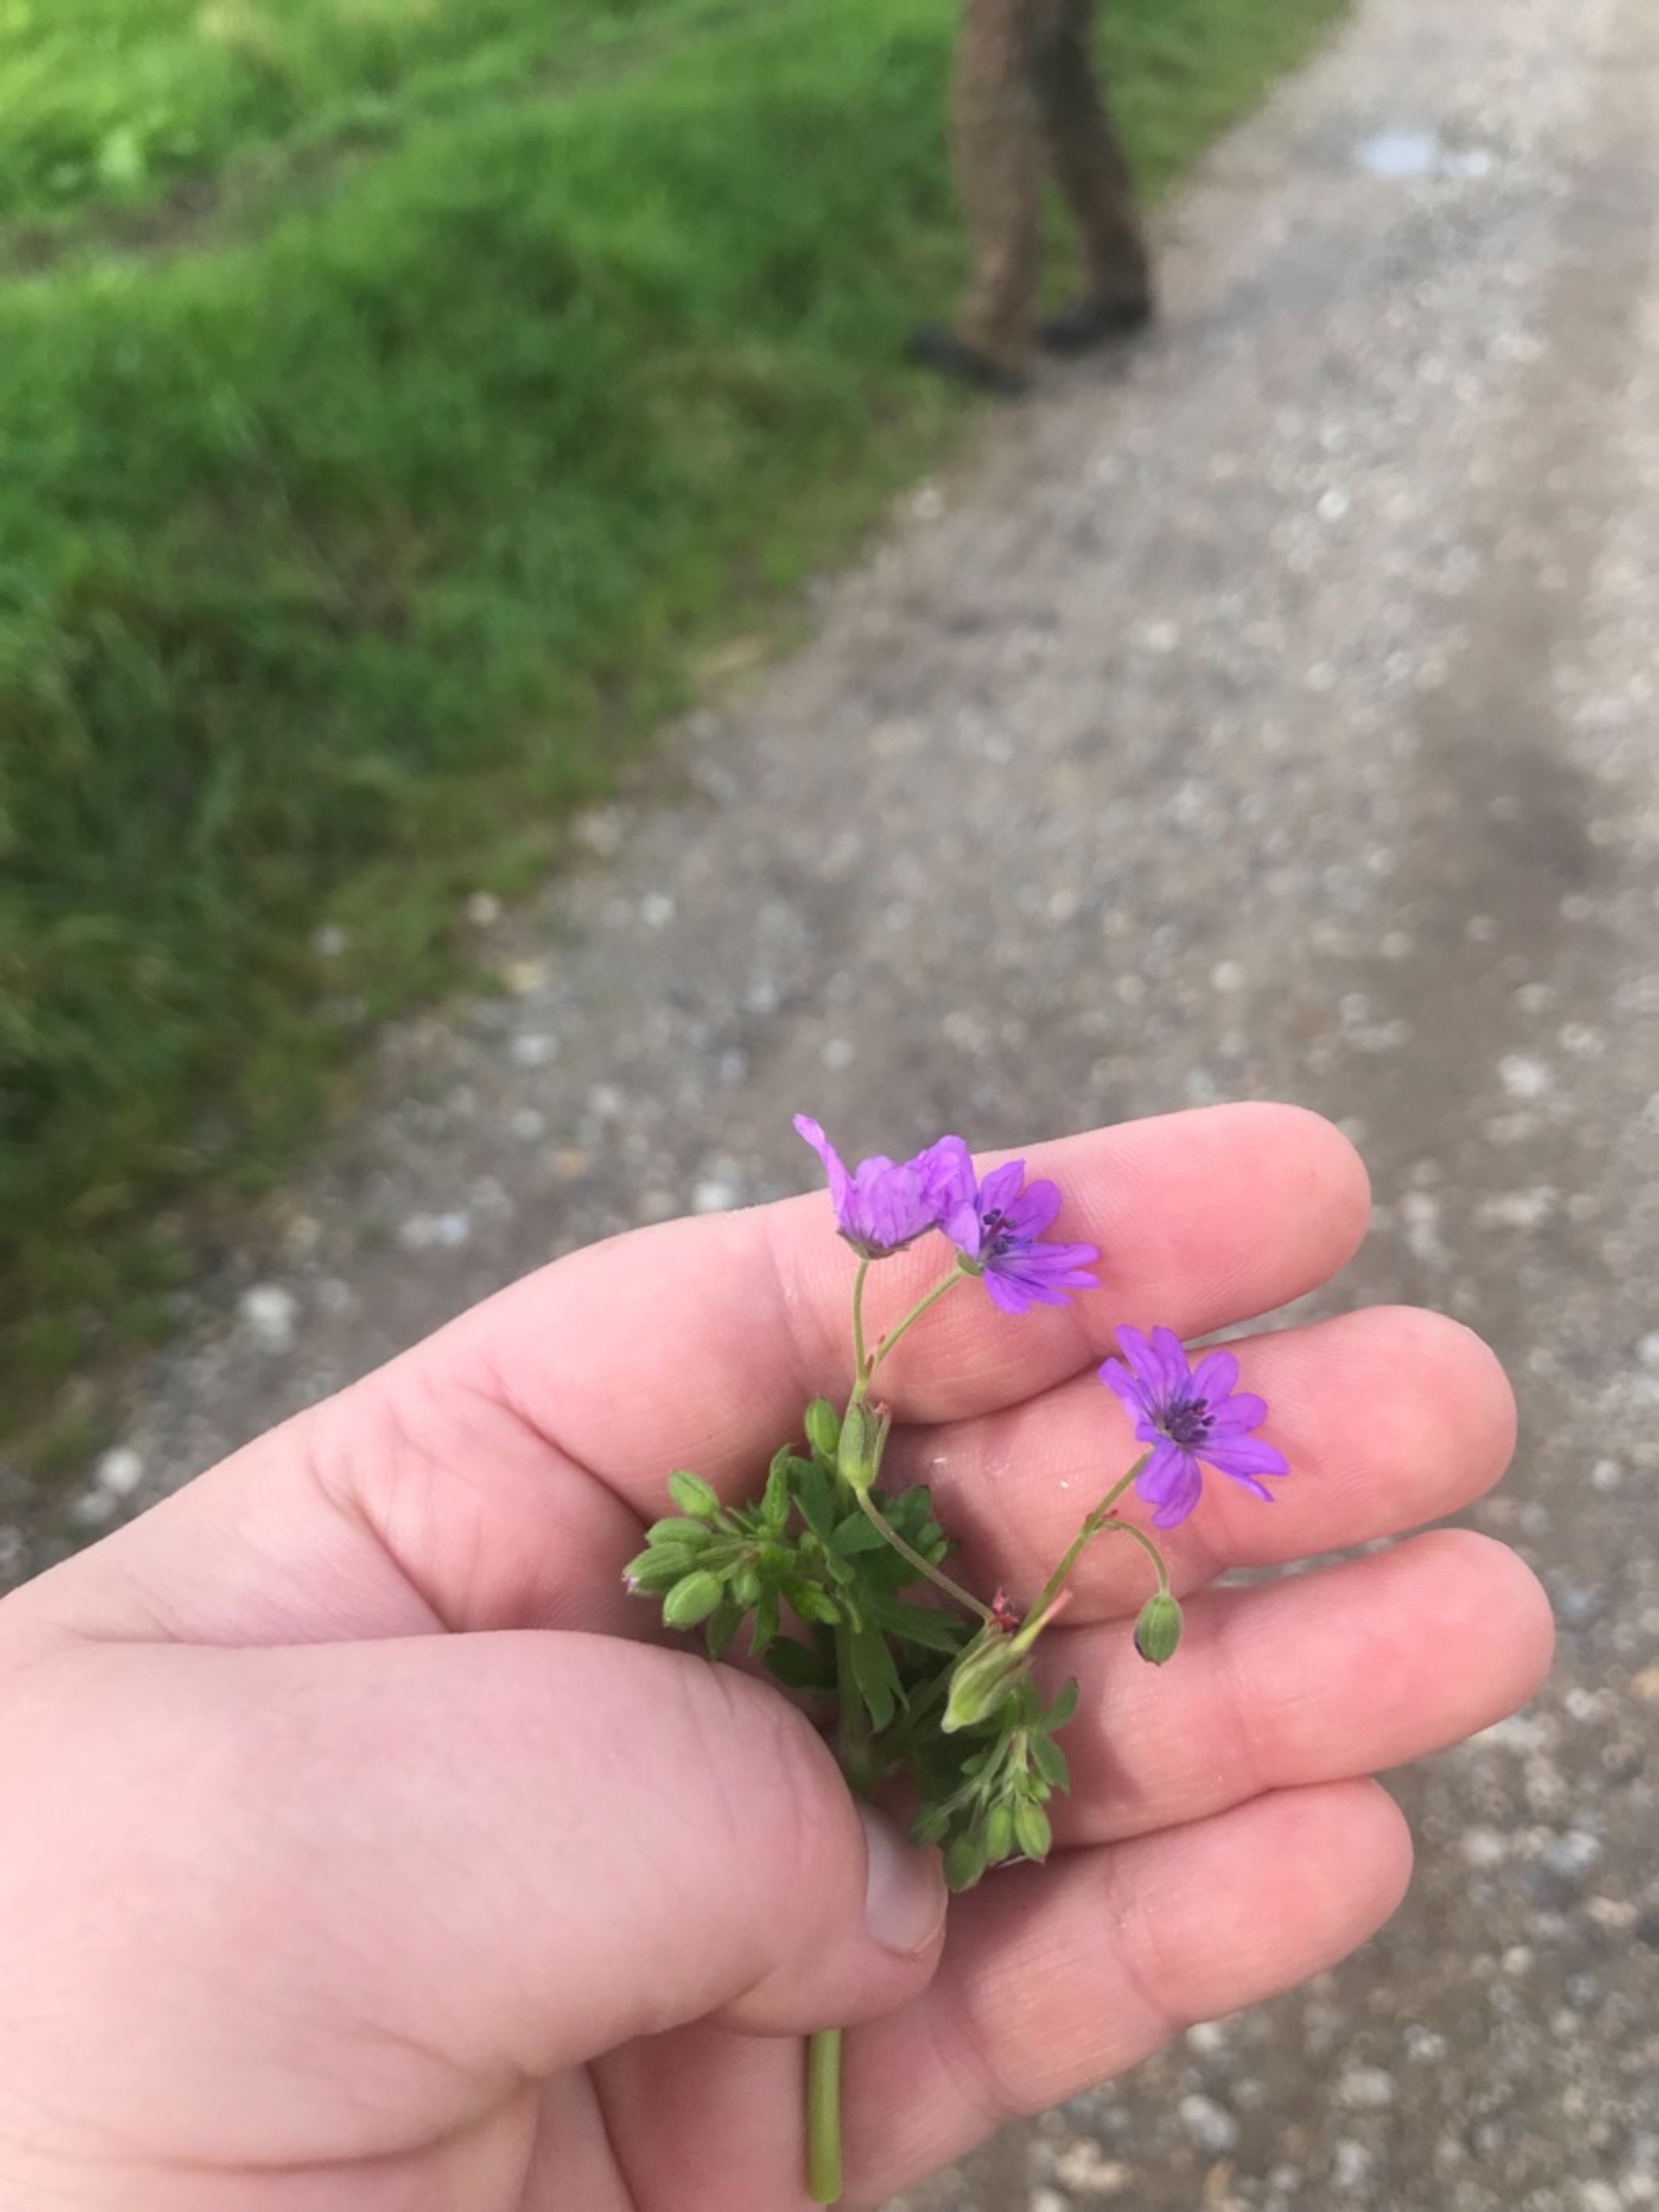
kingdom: Plantae
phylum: Tracheophyta
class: Magnoliopsida
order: Geraniales
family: Geraniaceae
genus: Geranium
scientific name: Geranium pyrenaicum
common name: Pyrenæisk storkenæb
